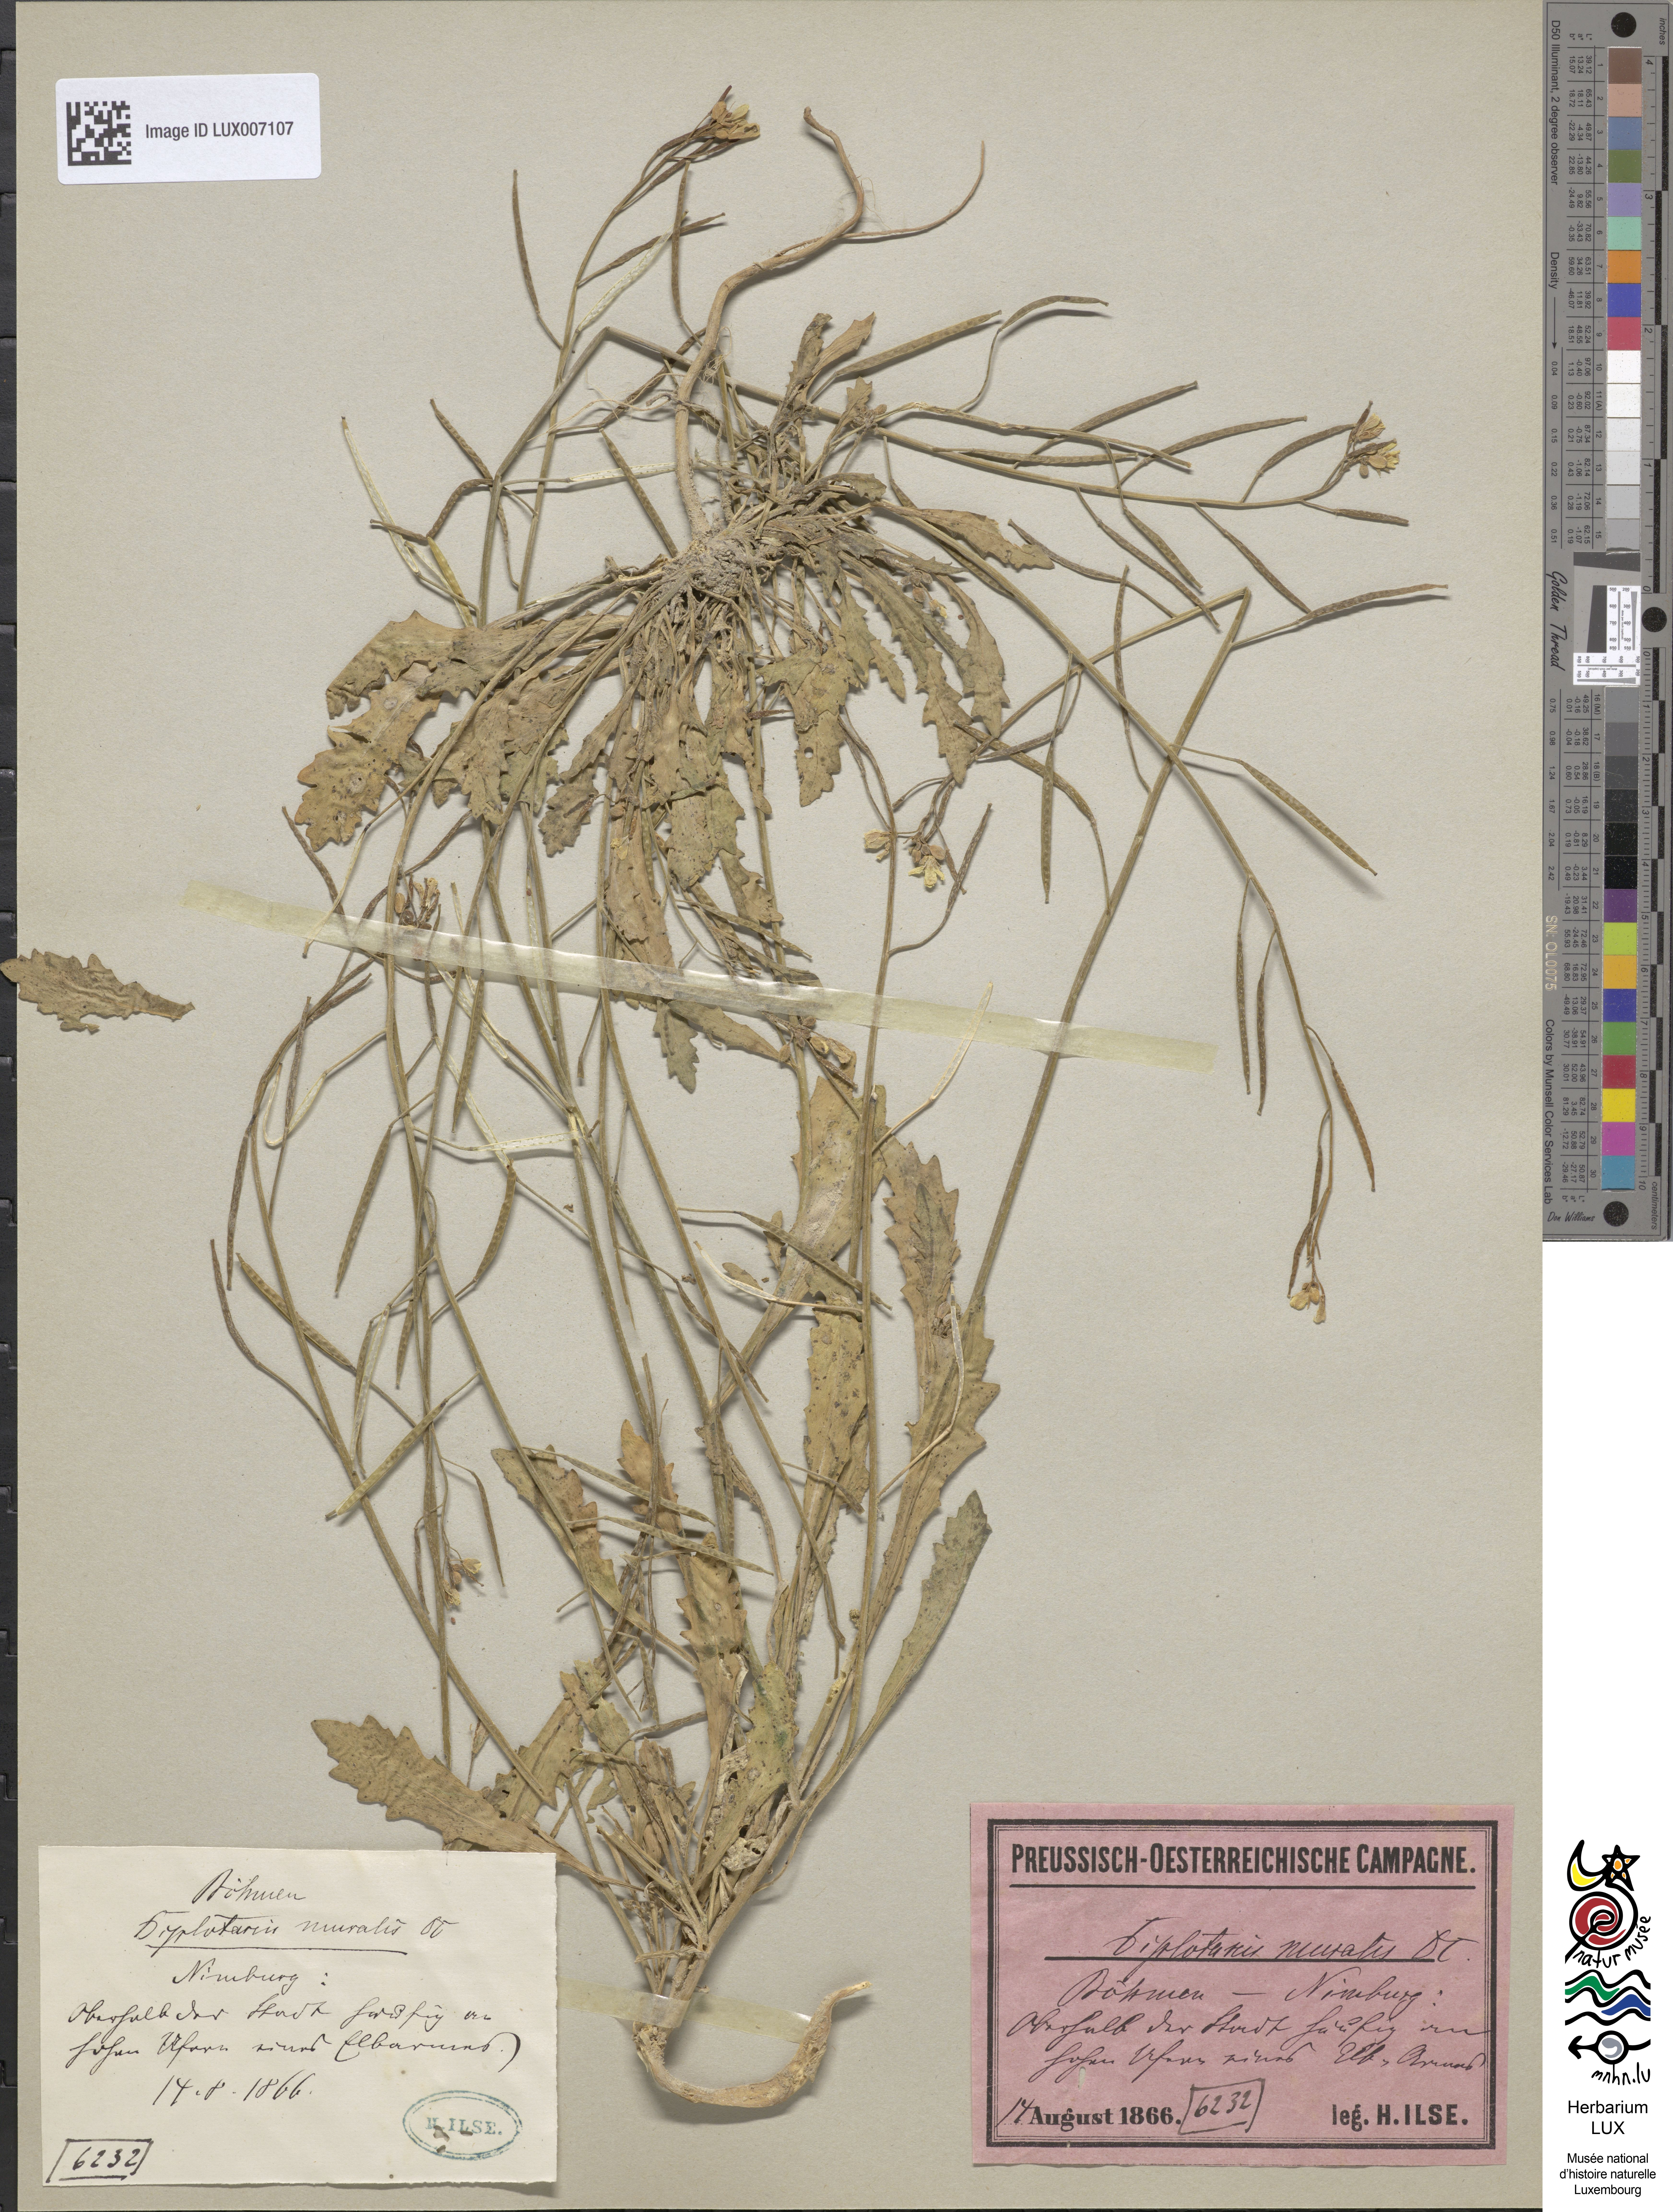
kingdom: Plantae
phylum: Tracheophyta
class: Magnoliopsida
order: Brassicales
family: Brassicaceae
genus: Diplotaxis
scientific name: Diplotaxis muralis
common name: Annual wall-rocket
